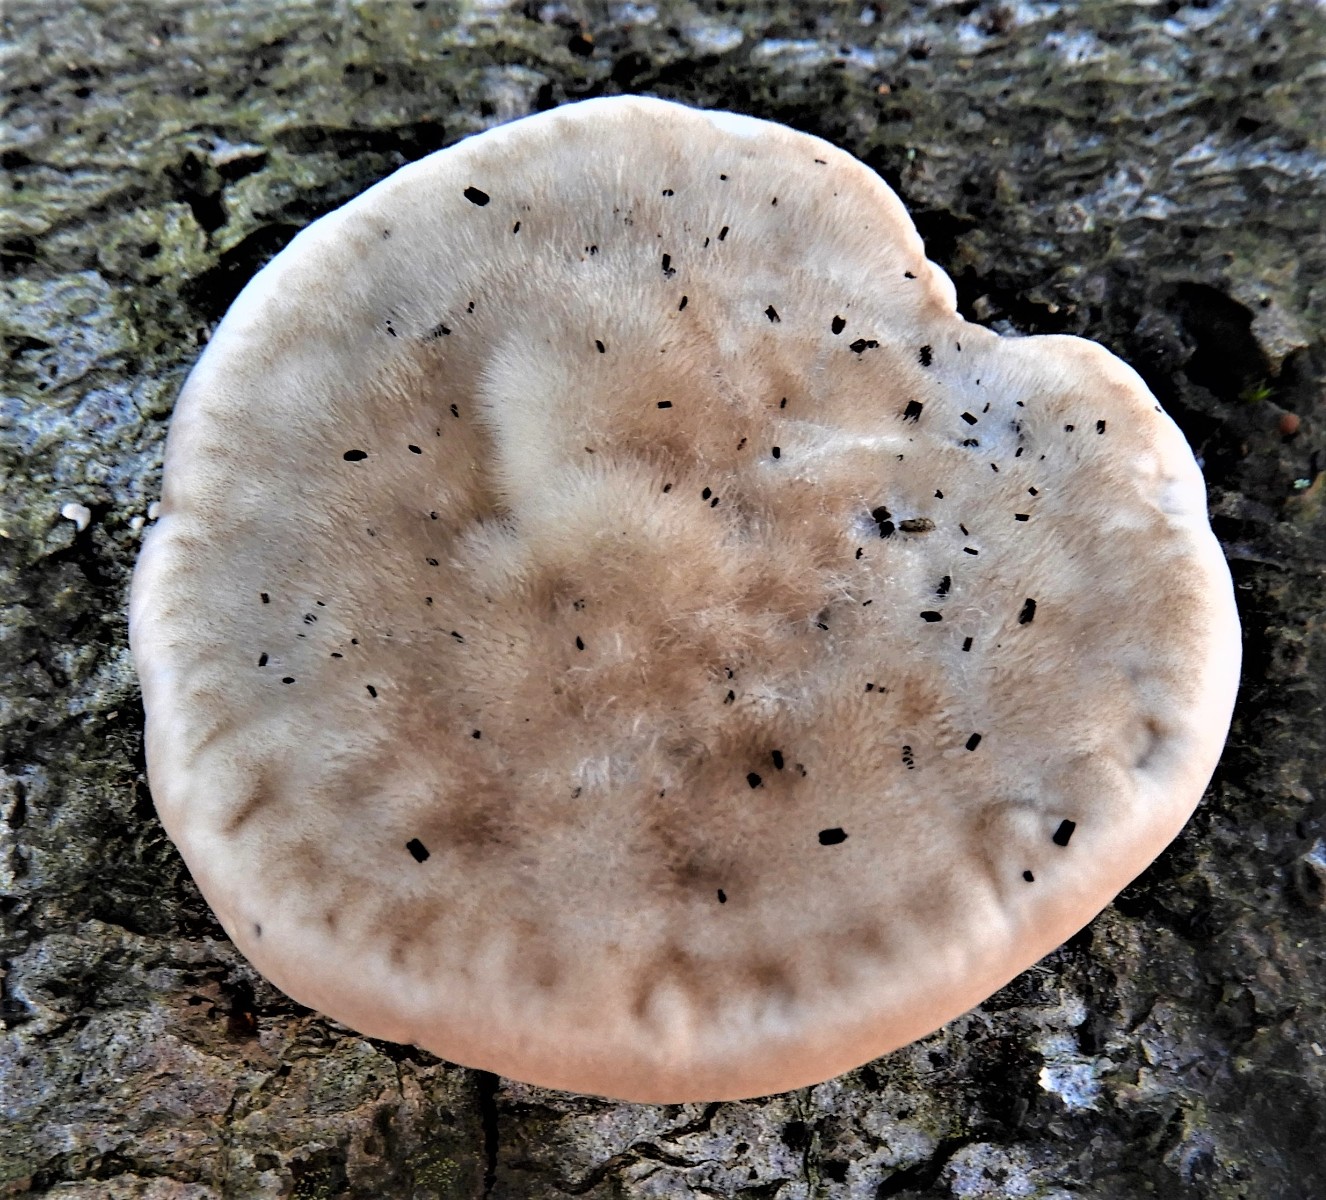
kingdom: Fungi
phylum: Basidiomycota
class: Agaricomycetes
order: Polyporales
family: Polyporaceae
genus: Trametes
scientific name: Trametes hirsuta
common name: håret læderporesvamp
